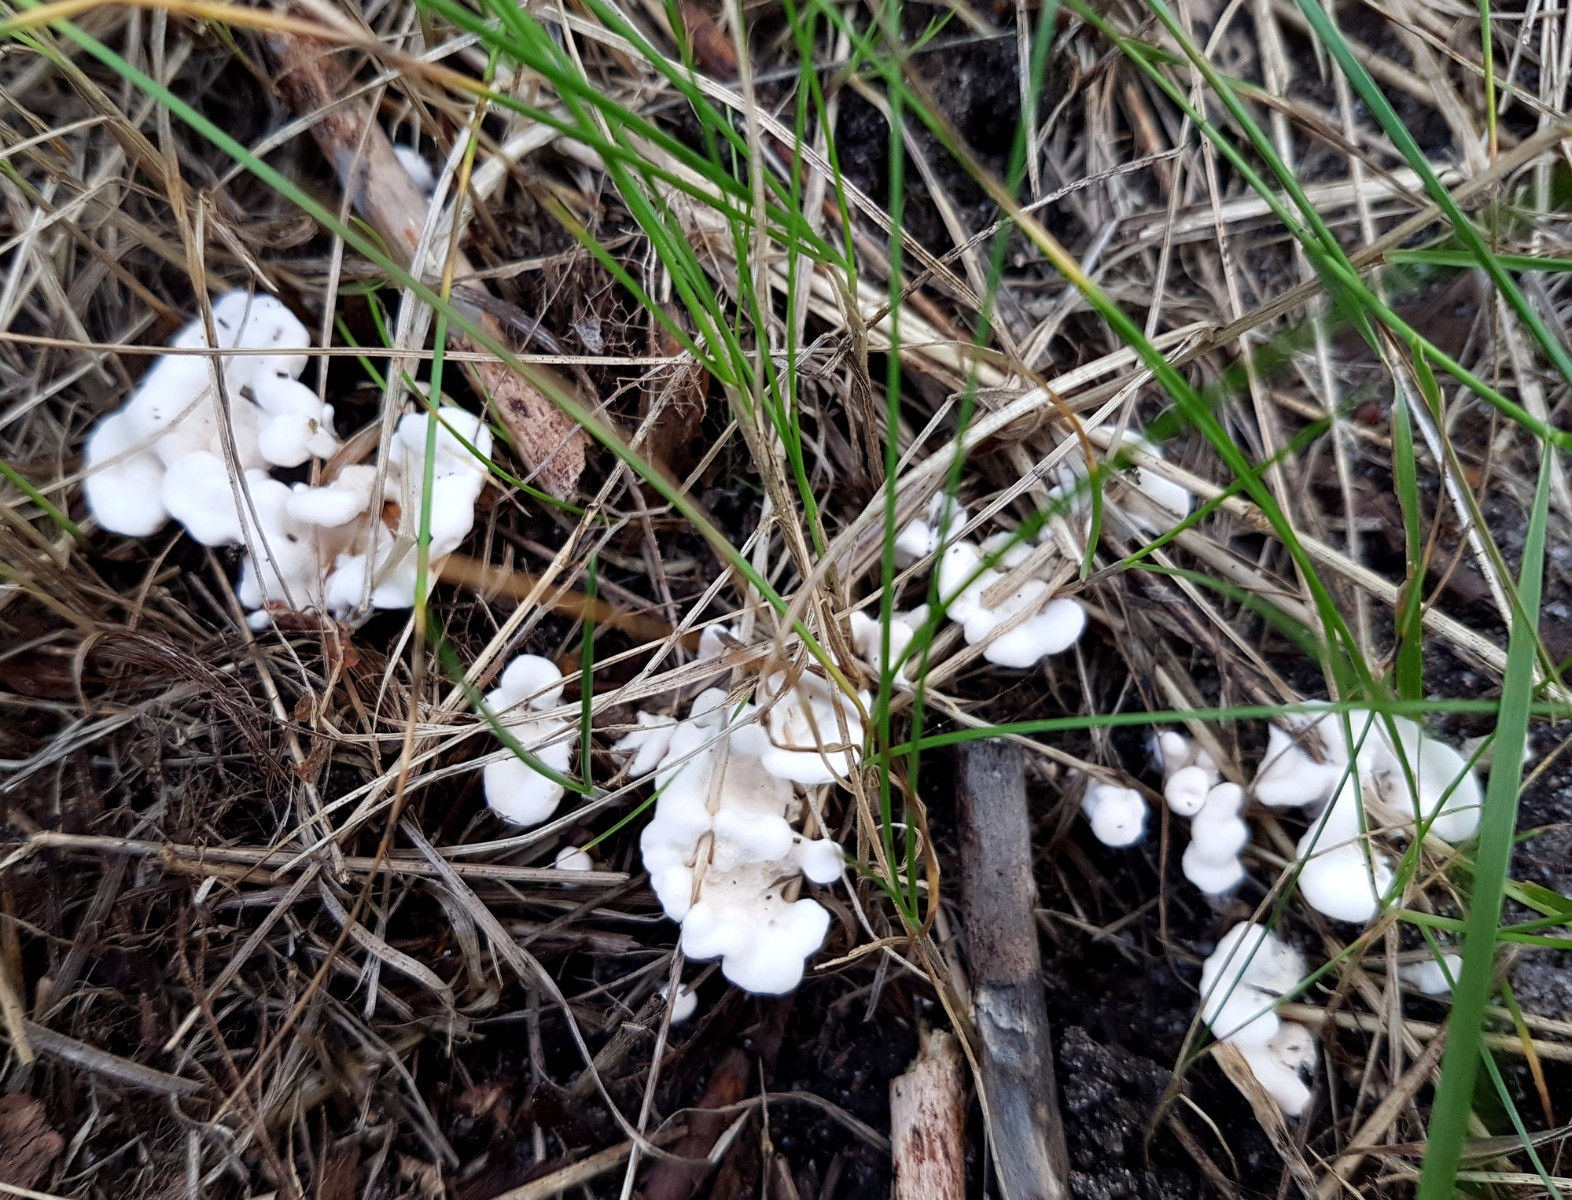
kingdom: Fungi
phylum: Basidiomycota
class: Agaricomycetes
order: Cantharellales
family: Hydnaceae
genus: Sistotrema
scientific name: Sistotrema confluens
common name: stilket kroneskorpe
